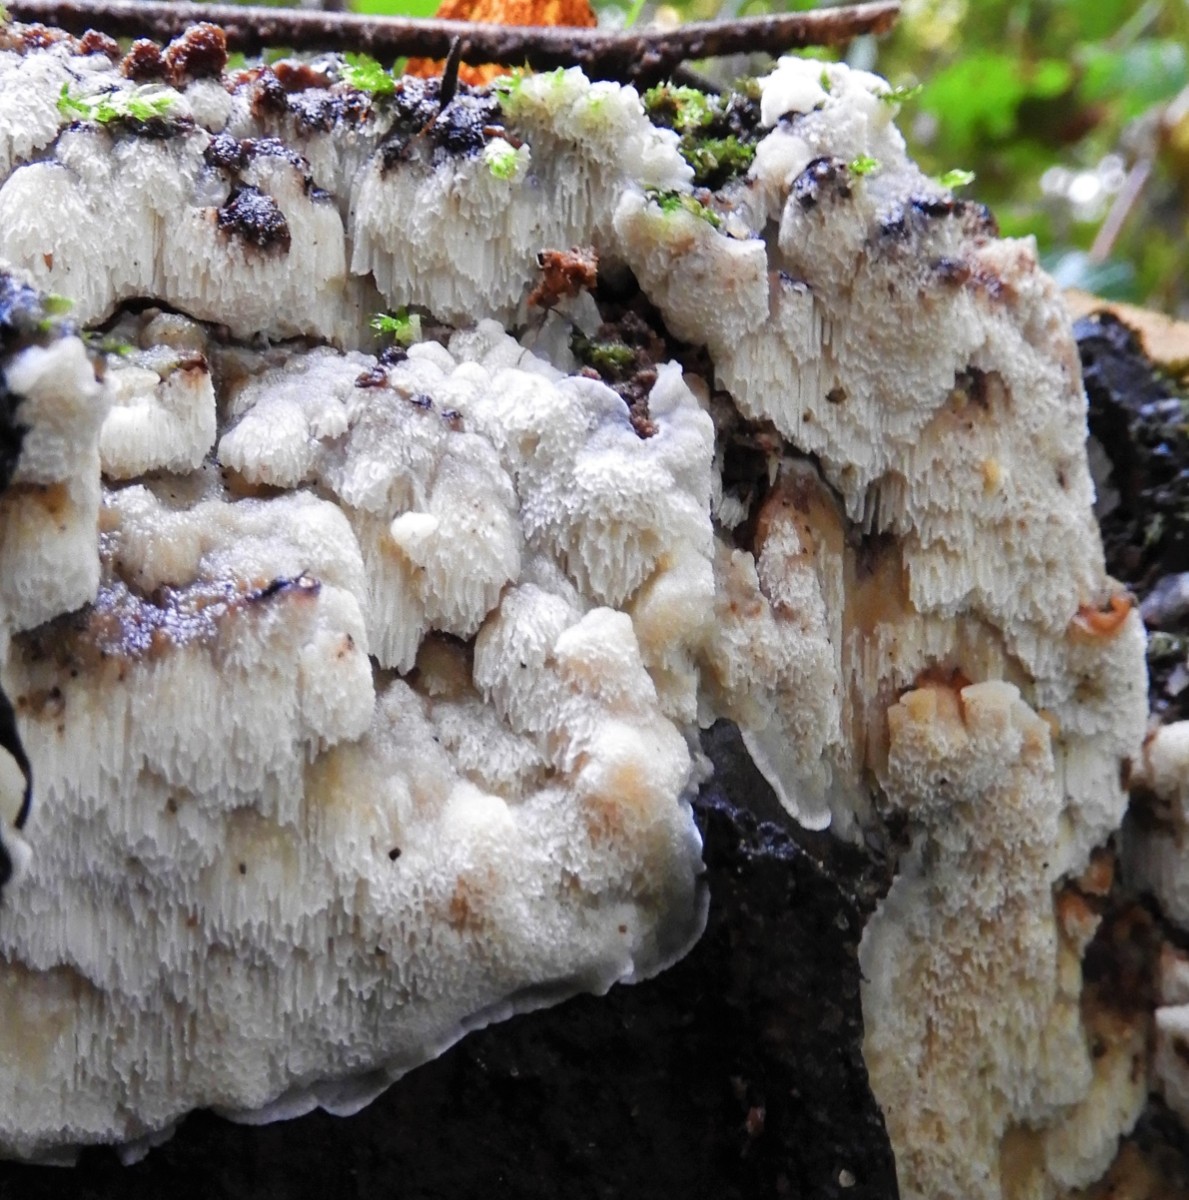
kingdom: Fungi
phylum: Basidiomycota
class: Agaricomycetes
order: Polyporales
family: Meruliaceae
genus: Physisporinus
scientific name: Physisporinus vitreus
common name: mastesvamp
